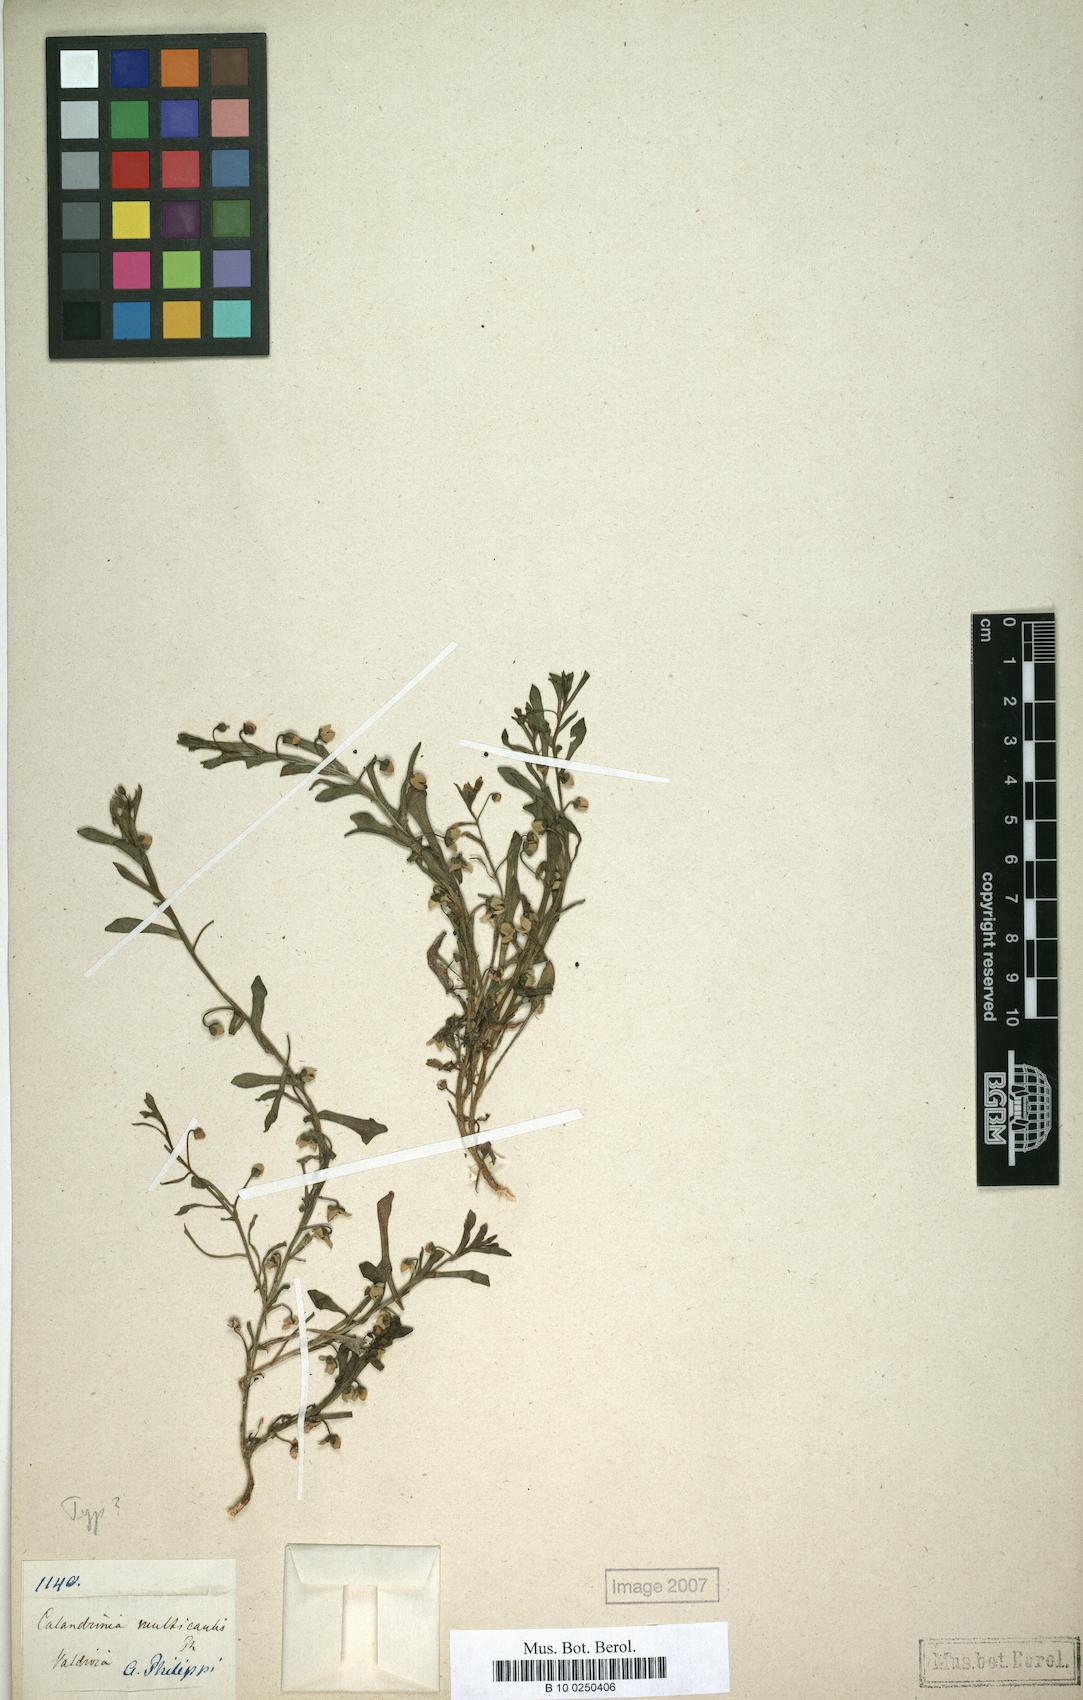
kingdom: Plantae
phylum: Tracheophyta
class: Magnoliopsida
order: Caryophyllales
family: Montiaceae
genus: Calandrinia
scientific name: Calandrinia nitida
